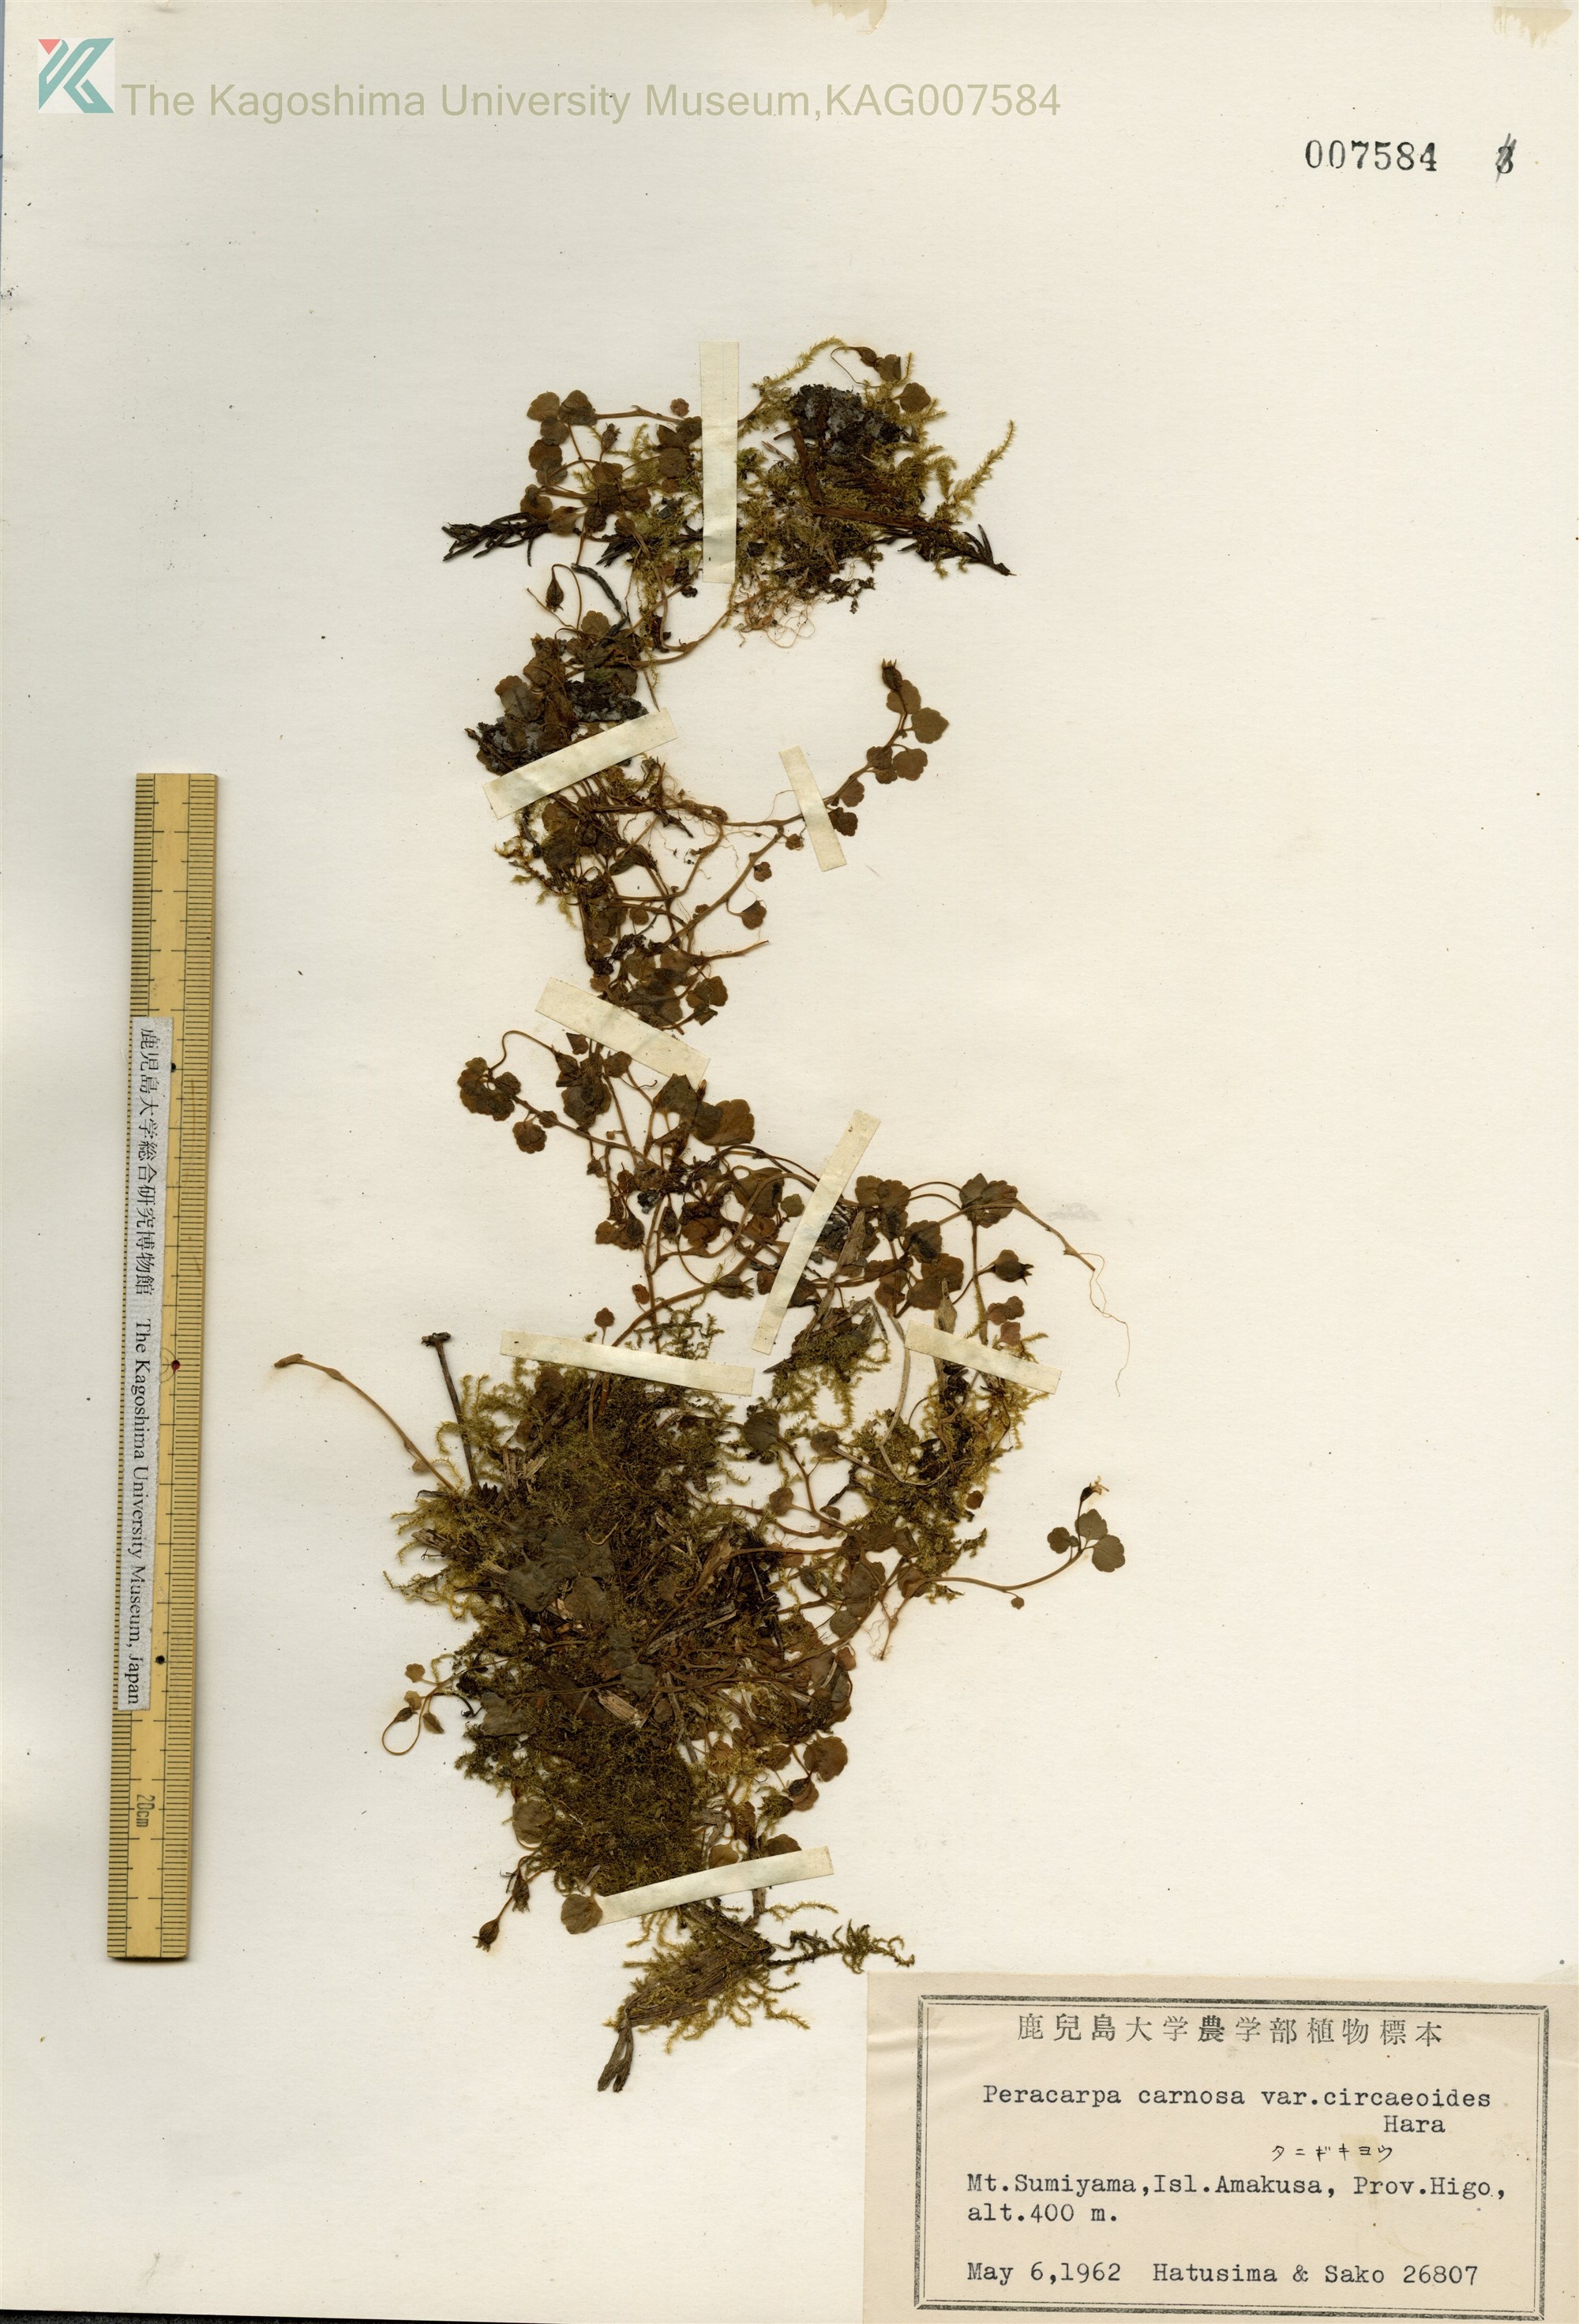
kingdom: Plantae
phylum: Tracheophyta
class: Magnoliopsida
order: Asterales
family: Campanulaceae
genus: Peracarpa
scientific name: Peracarpa carnosa
